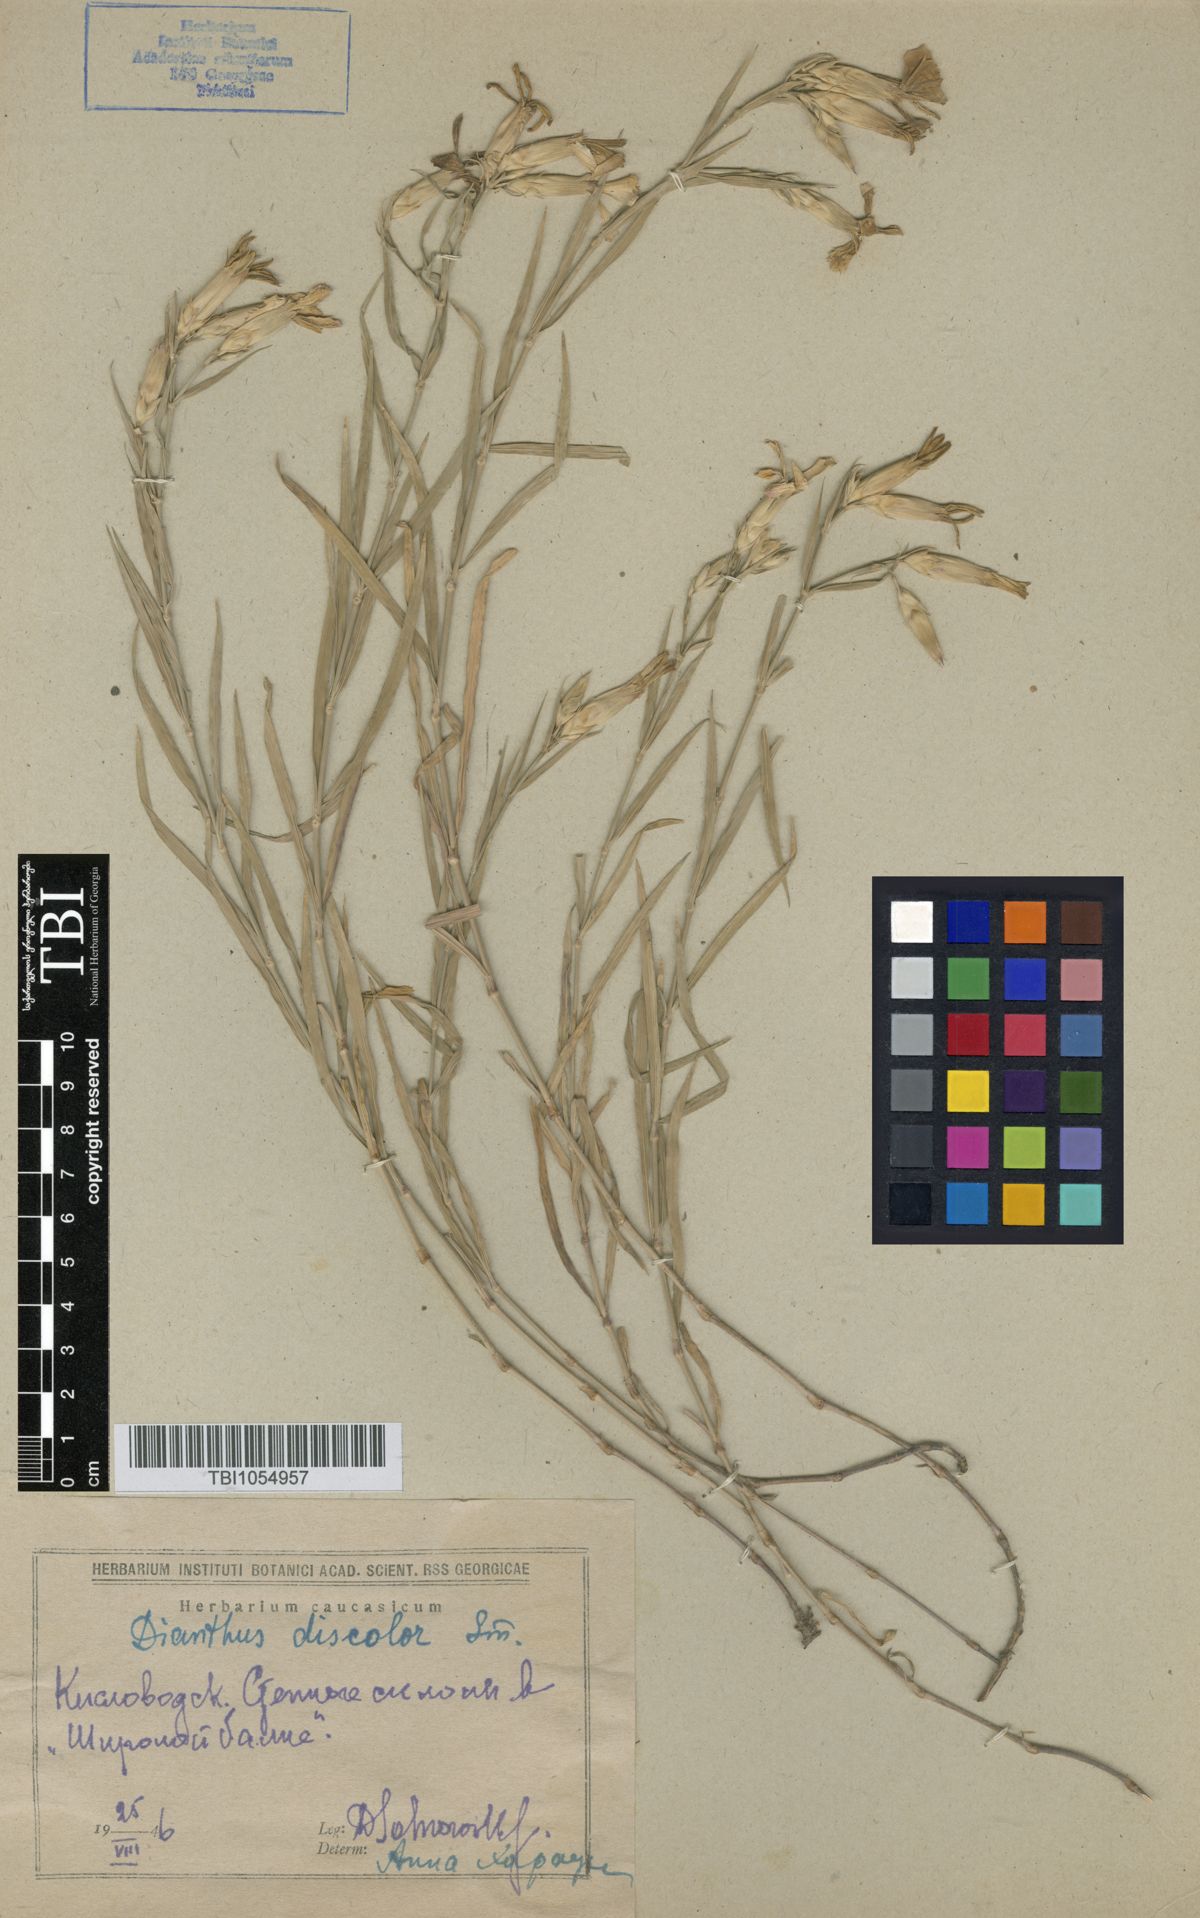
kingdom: Plantae
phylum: Tracheophyta
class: Magnoliopsida
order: Caryophyllales
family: Caryophyllaceae
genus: Dianthus
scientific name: Dianthus caucaseus
